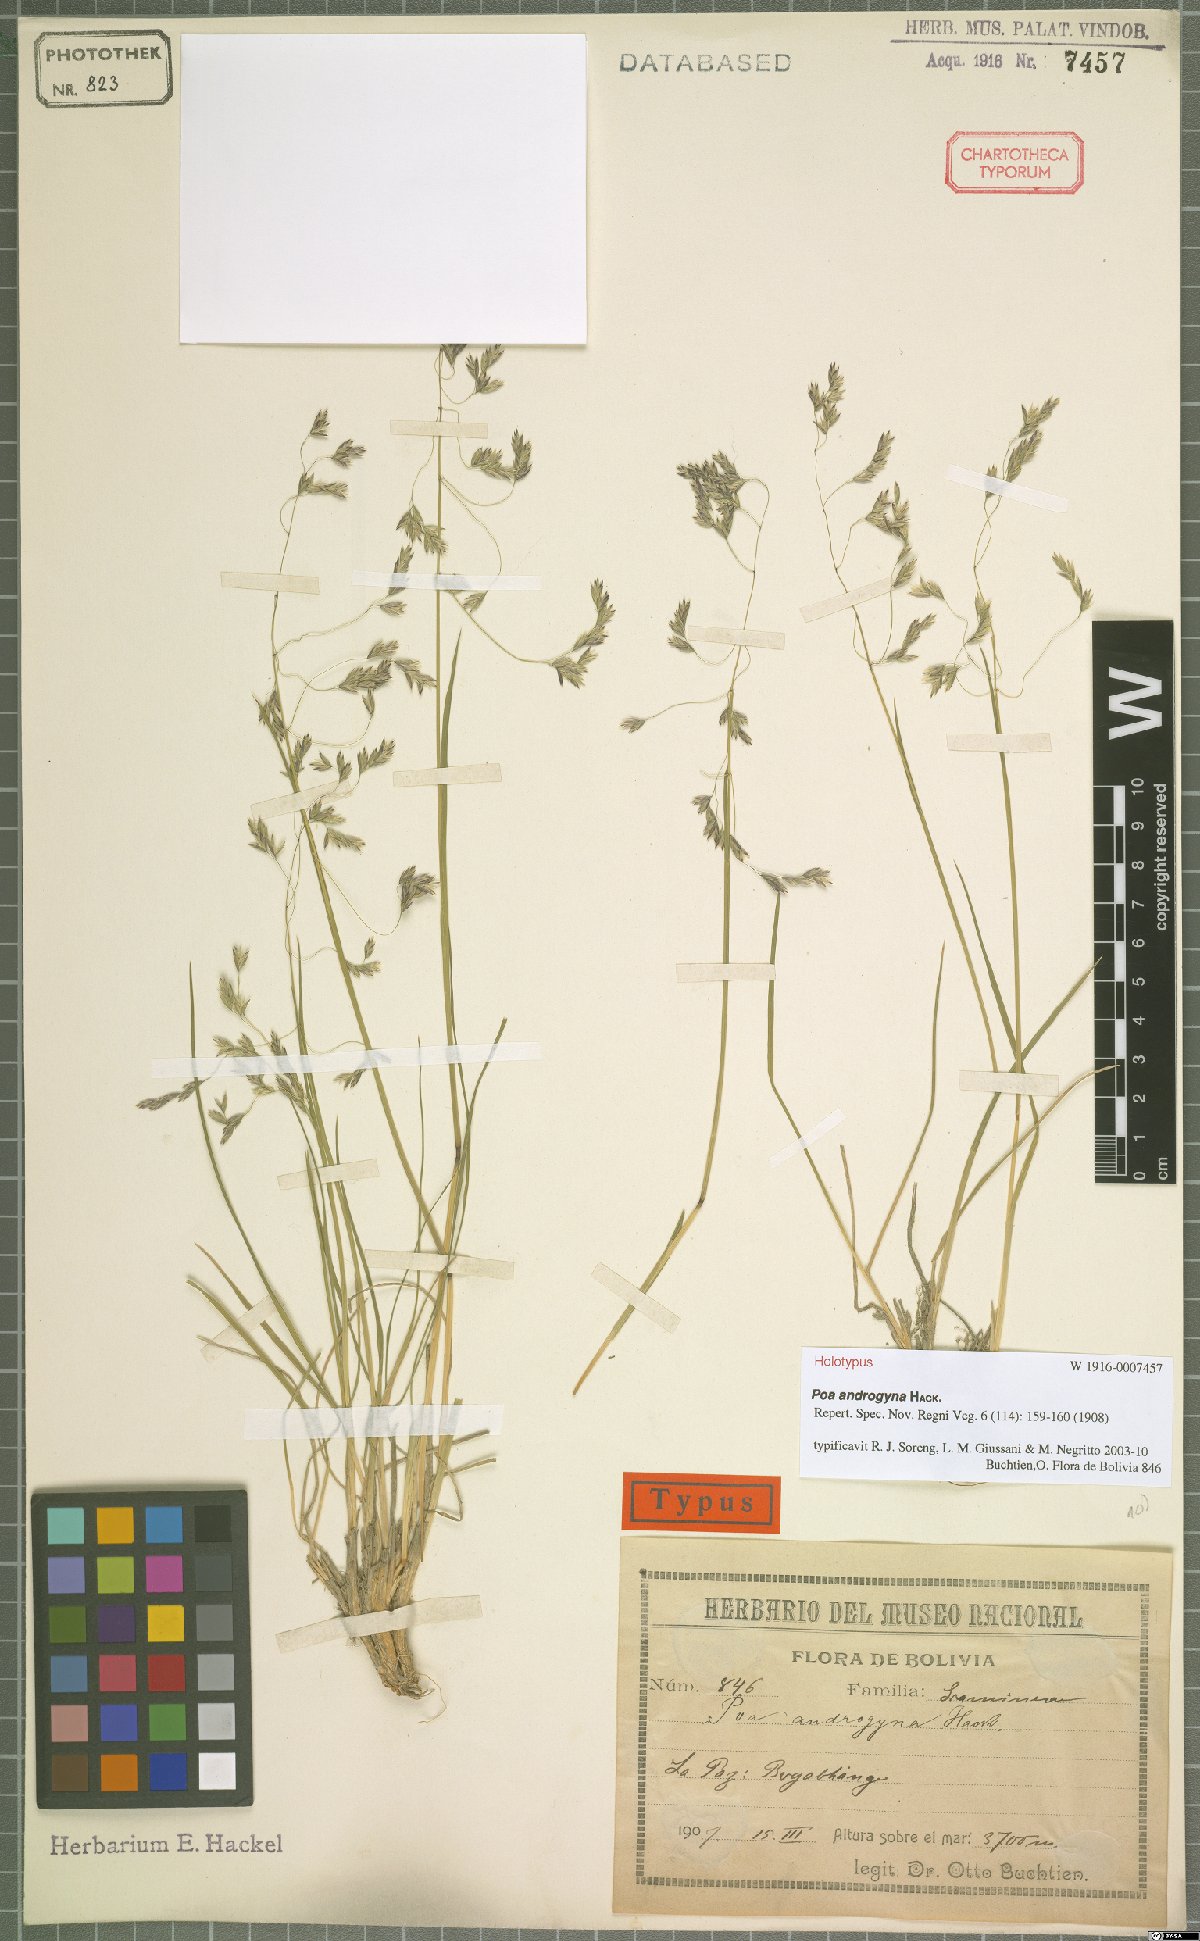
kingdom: Plantae
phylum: Tracheophyta
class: Liliopsida
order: Poales
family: Poaceae
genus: Poa
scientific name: Poa androgyna
